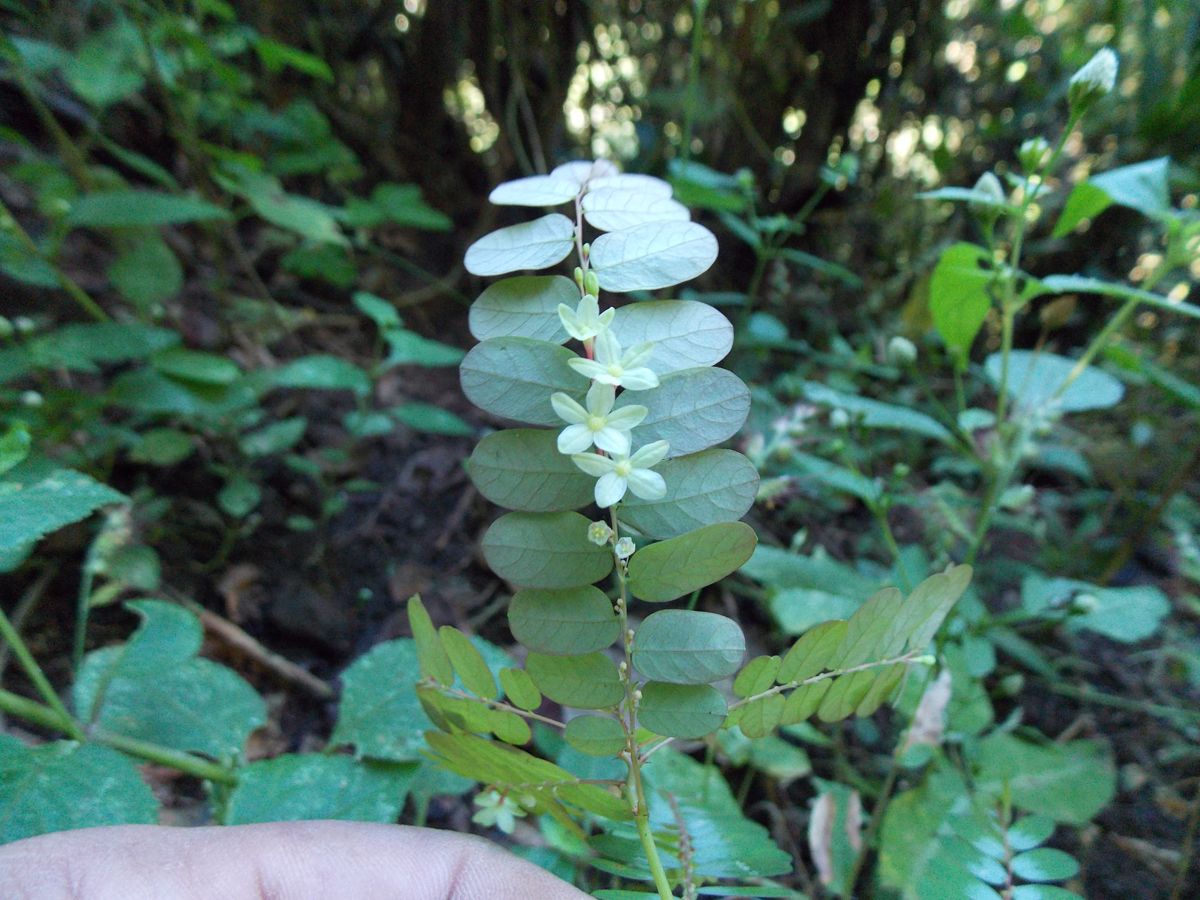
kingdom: Plantae
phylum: Tracheophyta
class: Magnoliopsida
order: Malpighiales
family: Phyllanthaceae
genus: Phyllanthus
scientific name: Phyllanthus niruri
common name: Niruri
